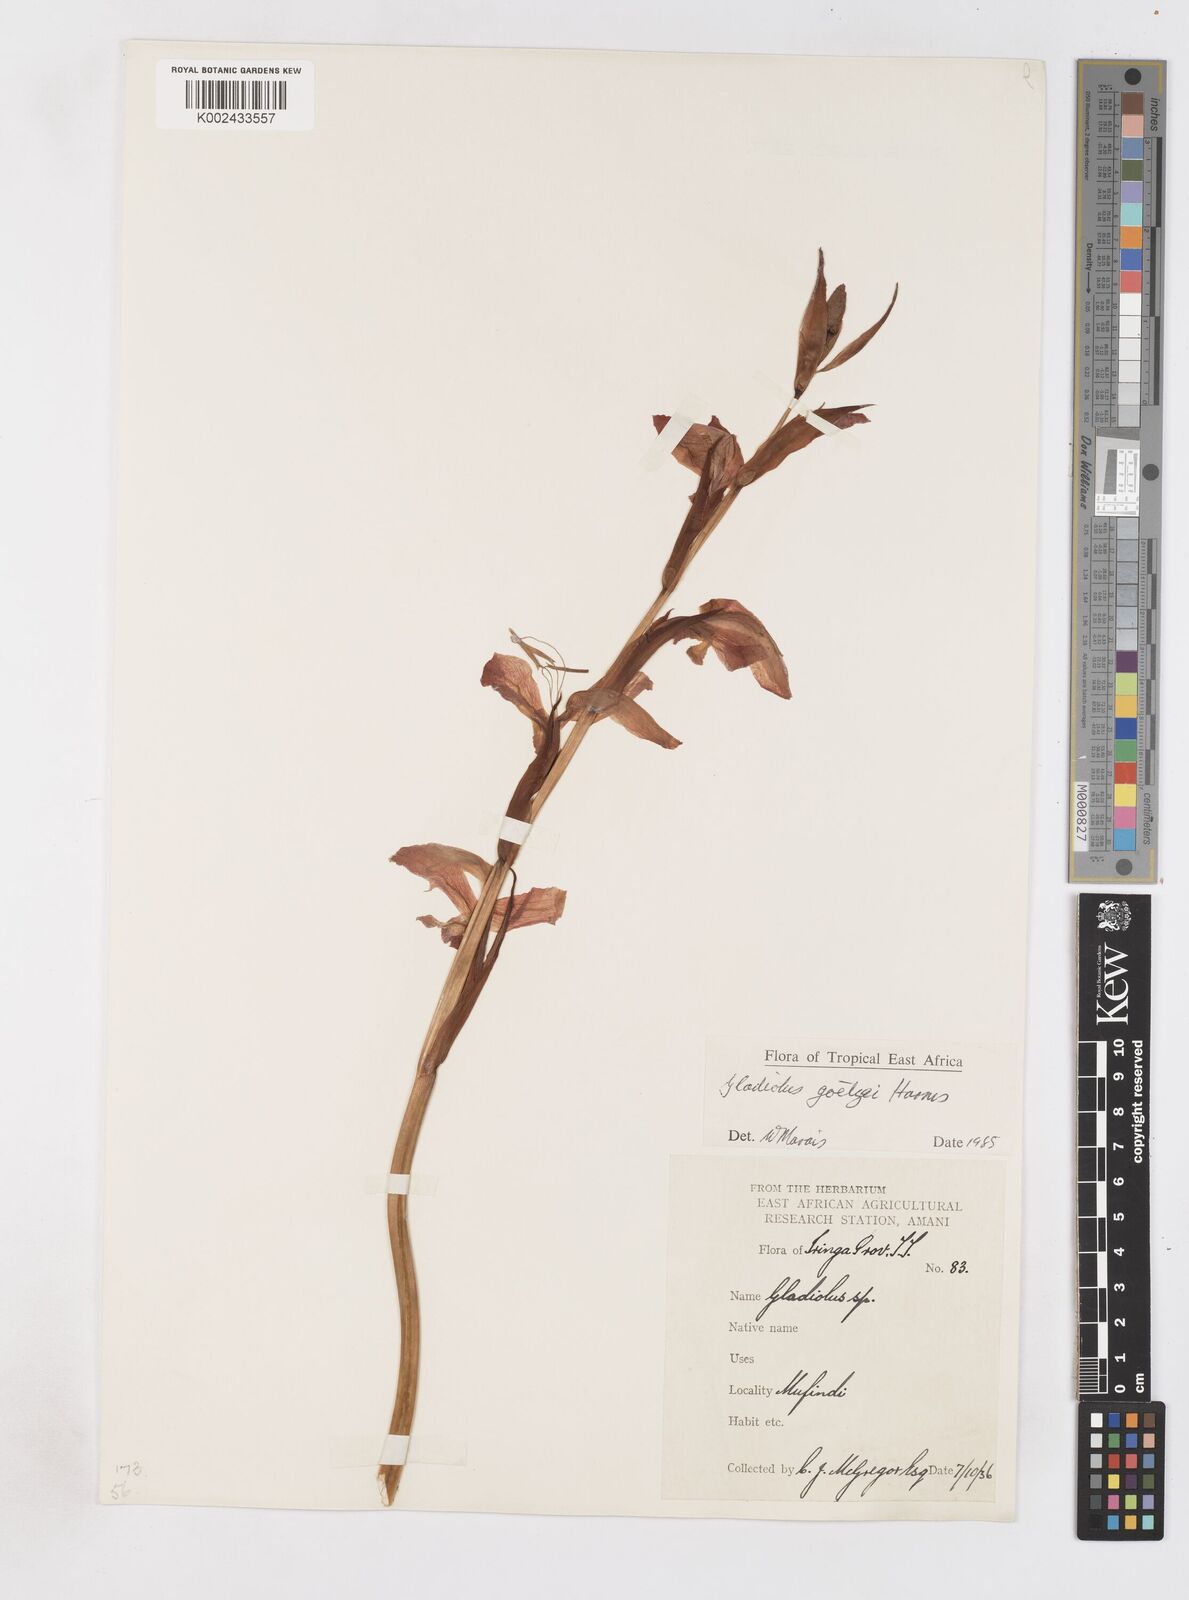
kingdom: Plantae
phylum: Tracheophyta
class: Liliopsida
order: Asparagales
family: Iridaceae
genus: Gladiolus
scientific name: Gladiolus dalenii
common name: Cornflag
